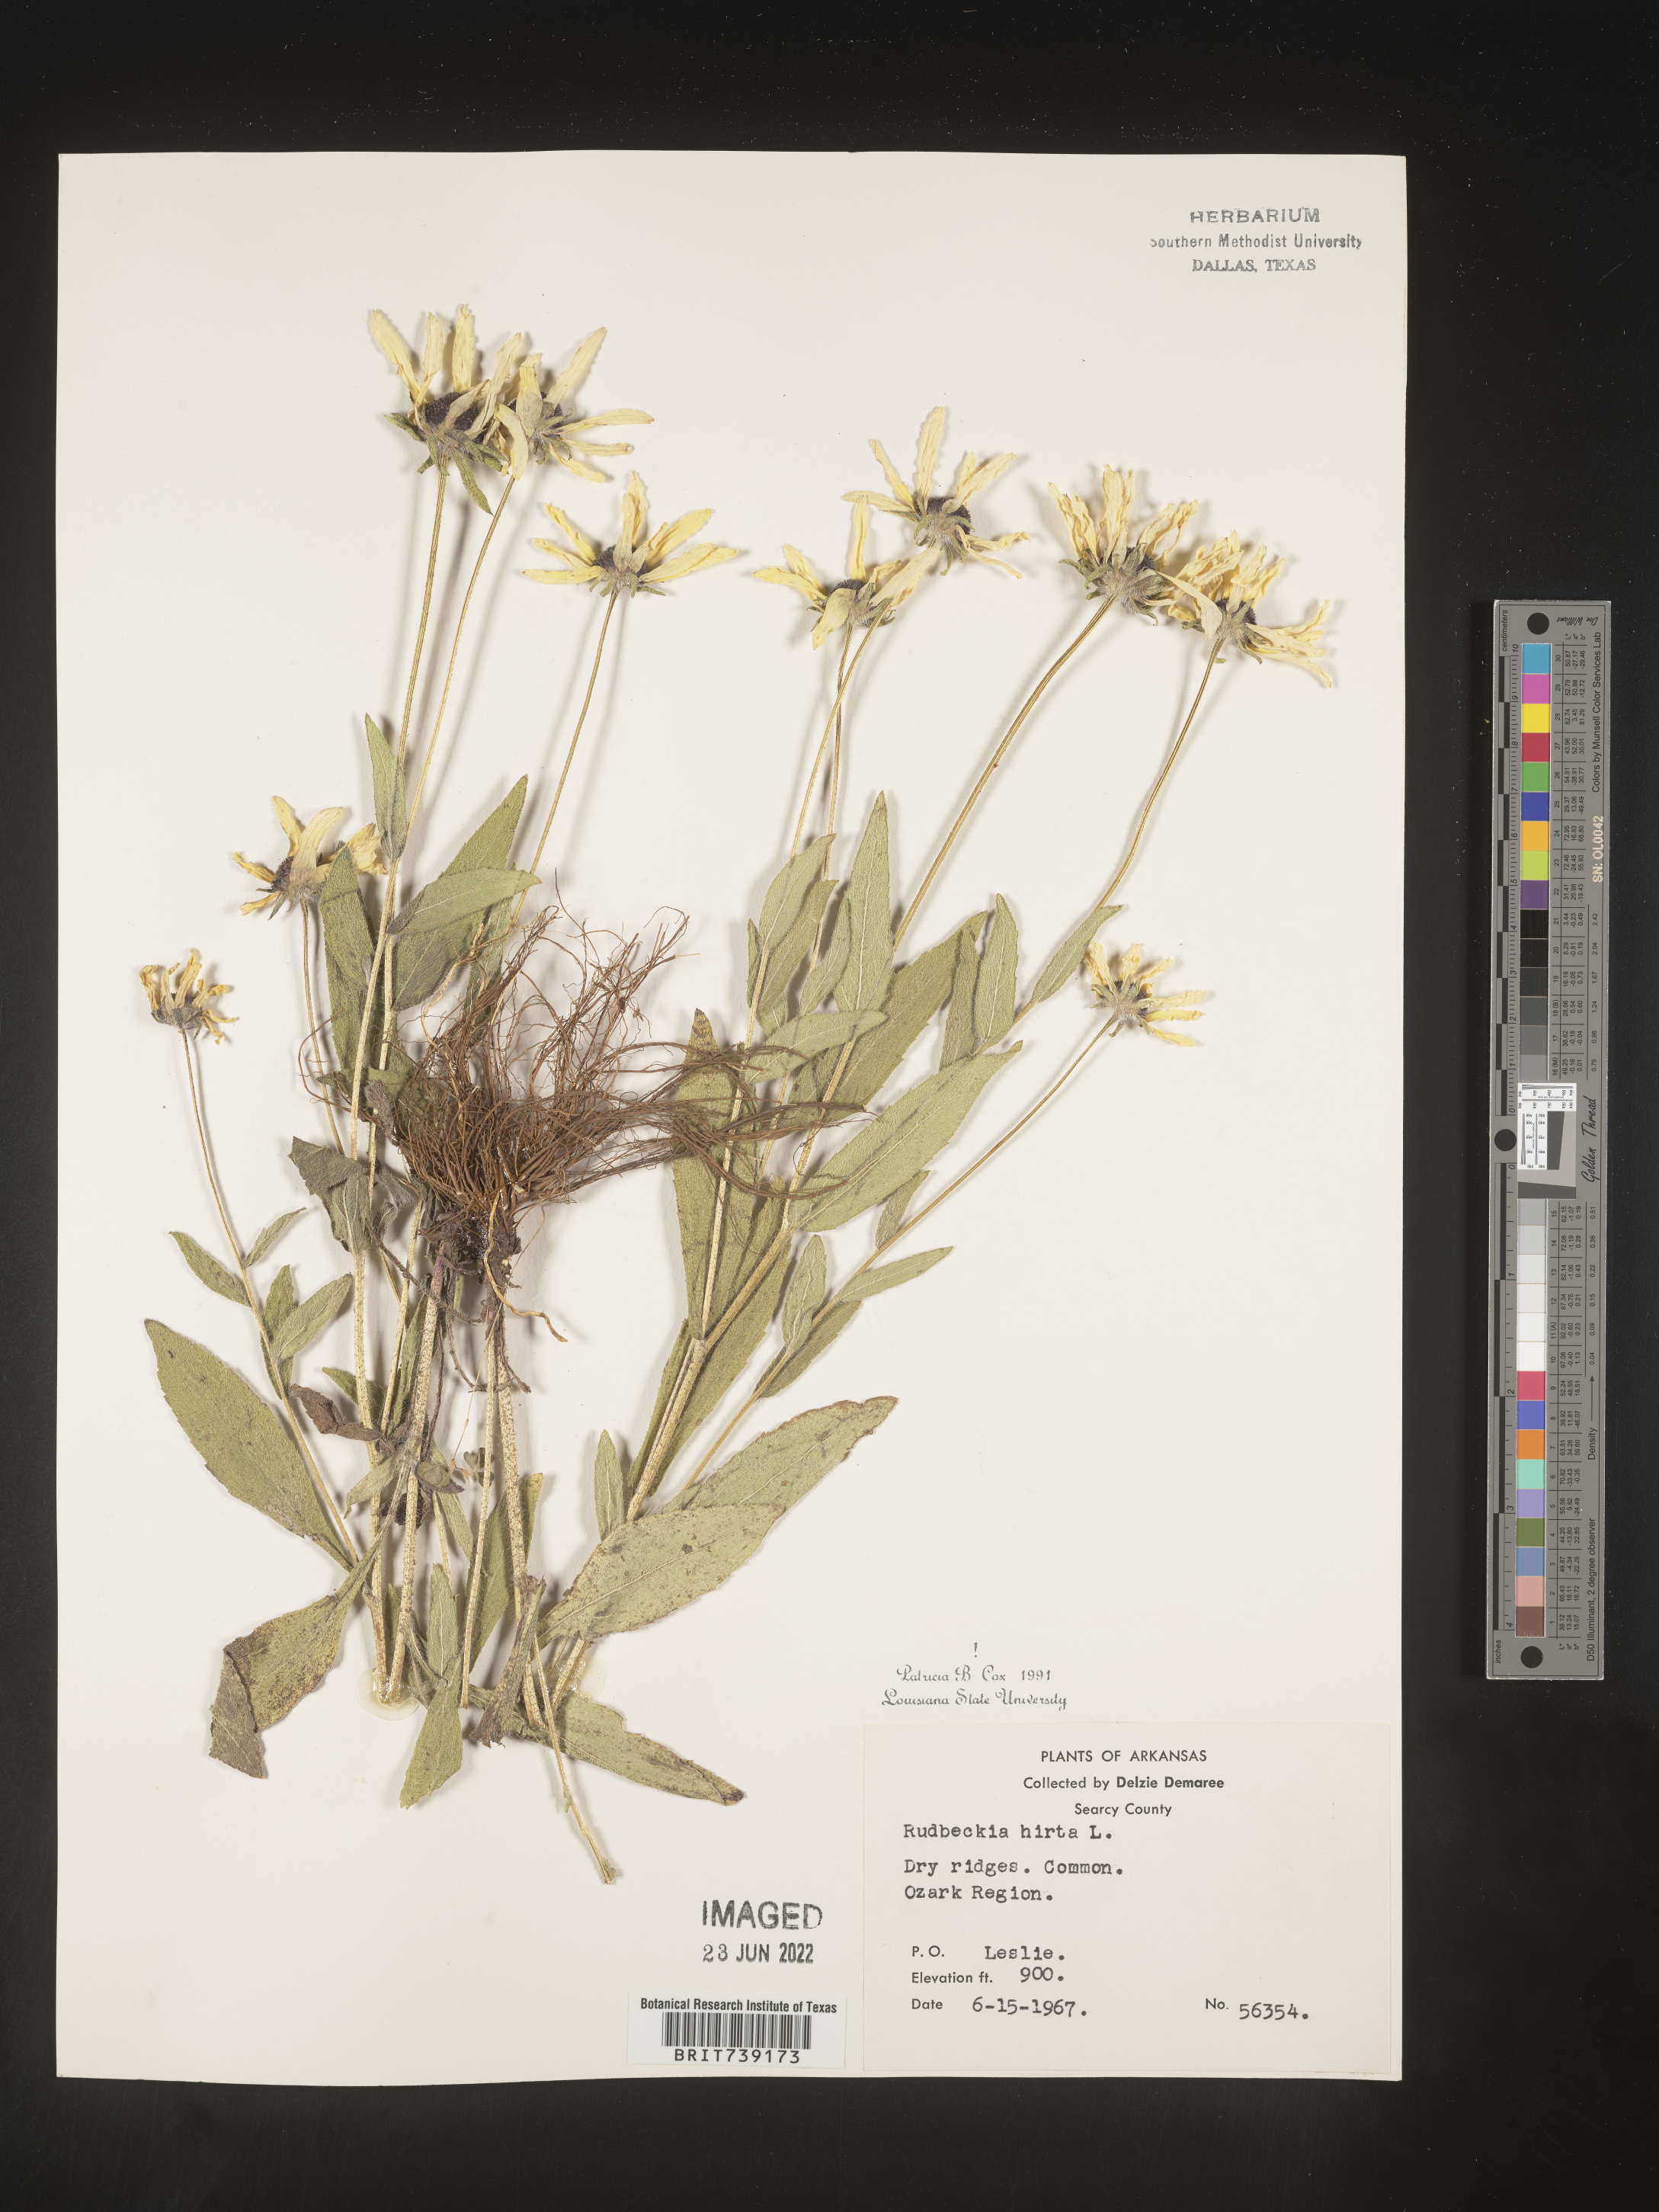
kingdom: Plantae
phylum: Tracheophyta
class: Magnoliopsida
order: Asterales
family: Asteraceae
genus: Rudbeckia
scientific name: Rudbeckia hirta
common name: Black-eyed-susan
